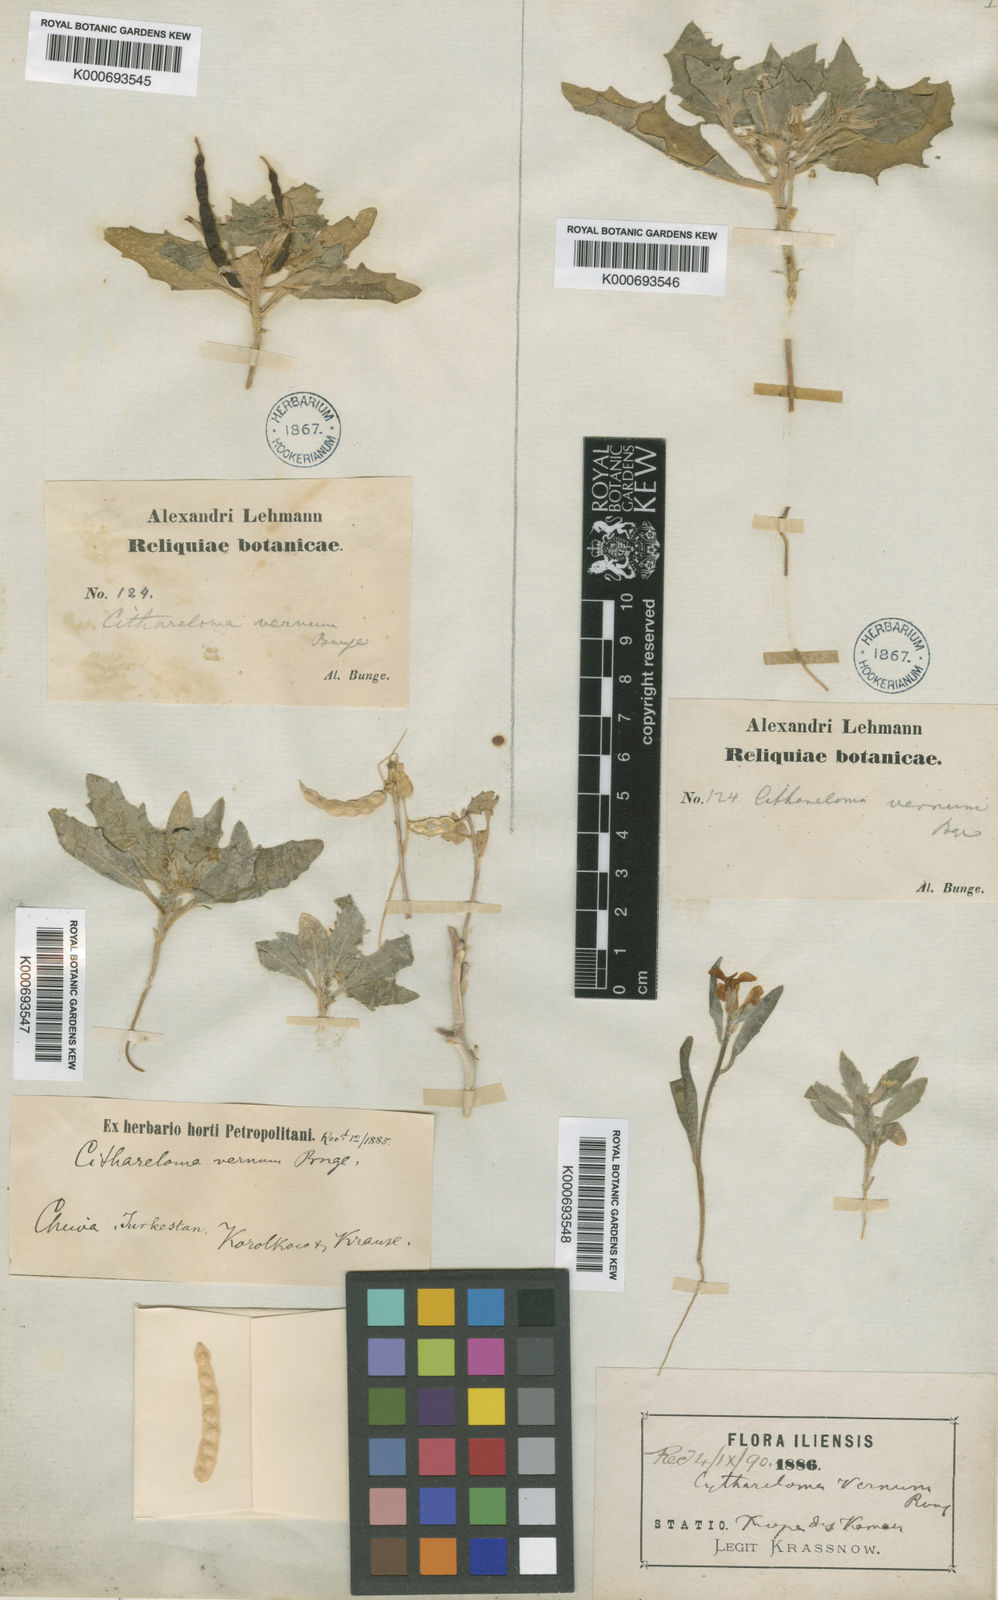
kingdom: Plantae
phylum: Tracheophyta
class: Magnoliopsida
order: Brassicales
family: Brassicaceae
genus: Cithareloma
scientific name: Cithareloma vernum
